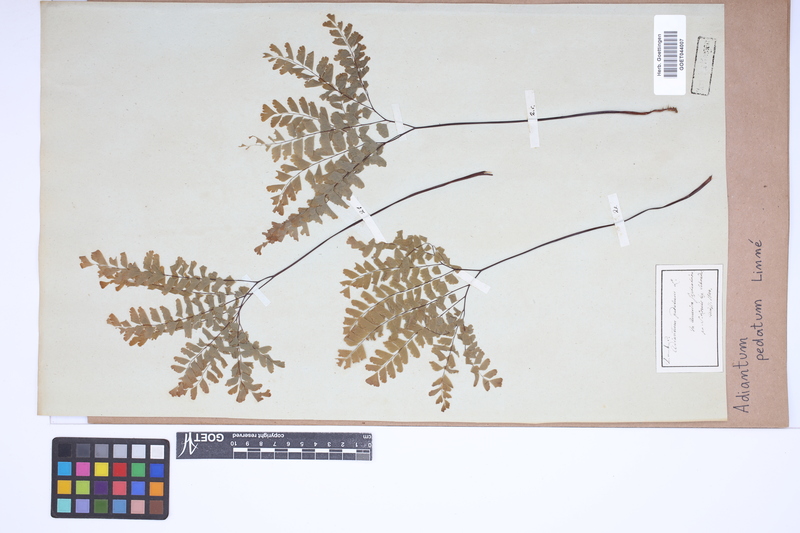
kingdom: Plantae
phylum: Tracheophyta
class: Polypodiopsida
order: Polypodiales
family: Pteridaceae
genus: Adiantum
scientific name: Adiantum pedatum
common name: Five-finger fern
